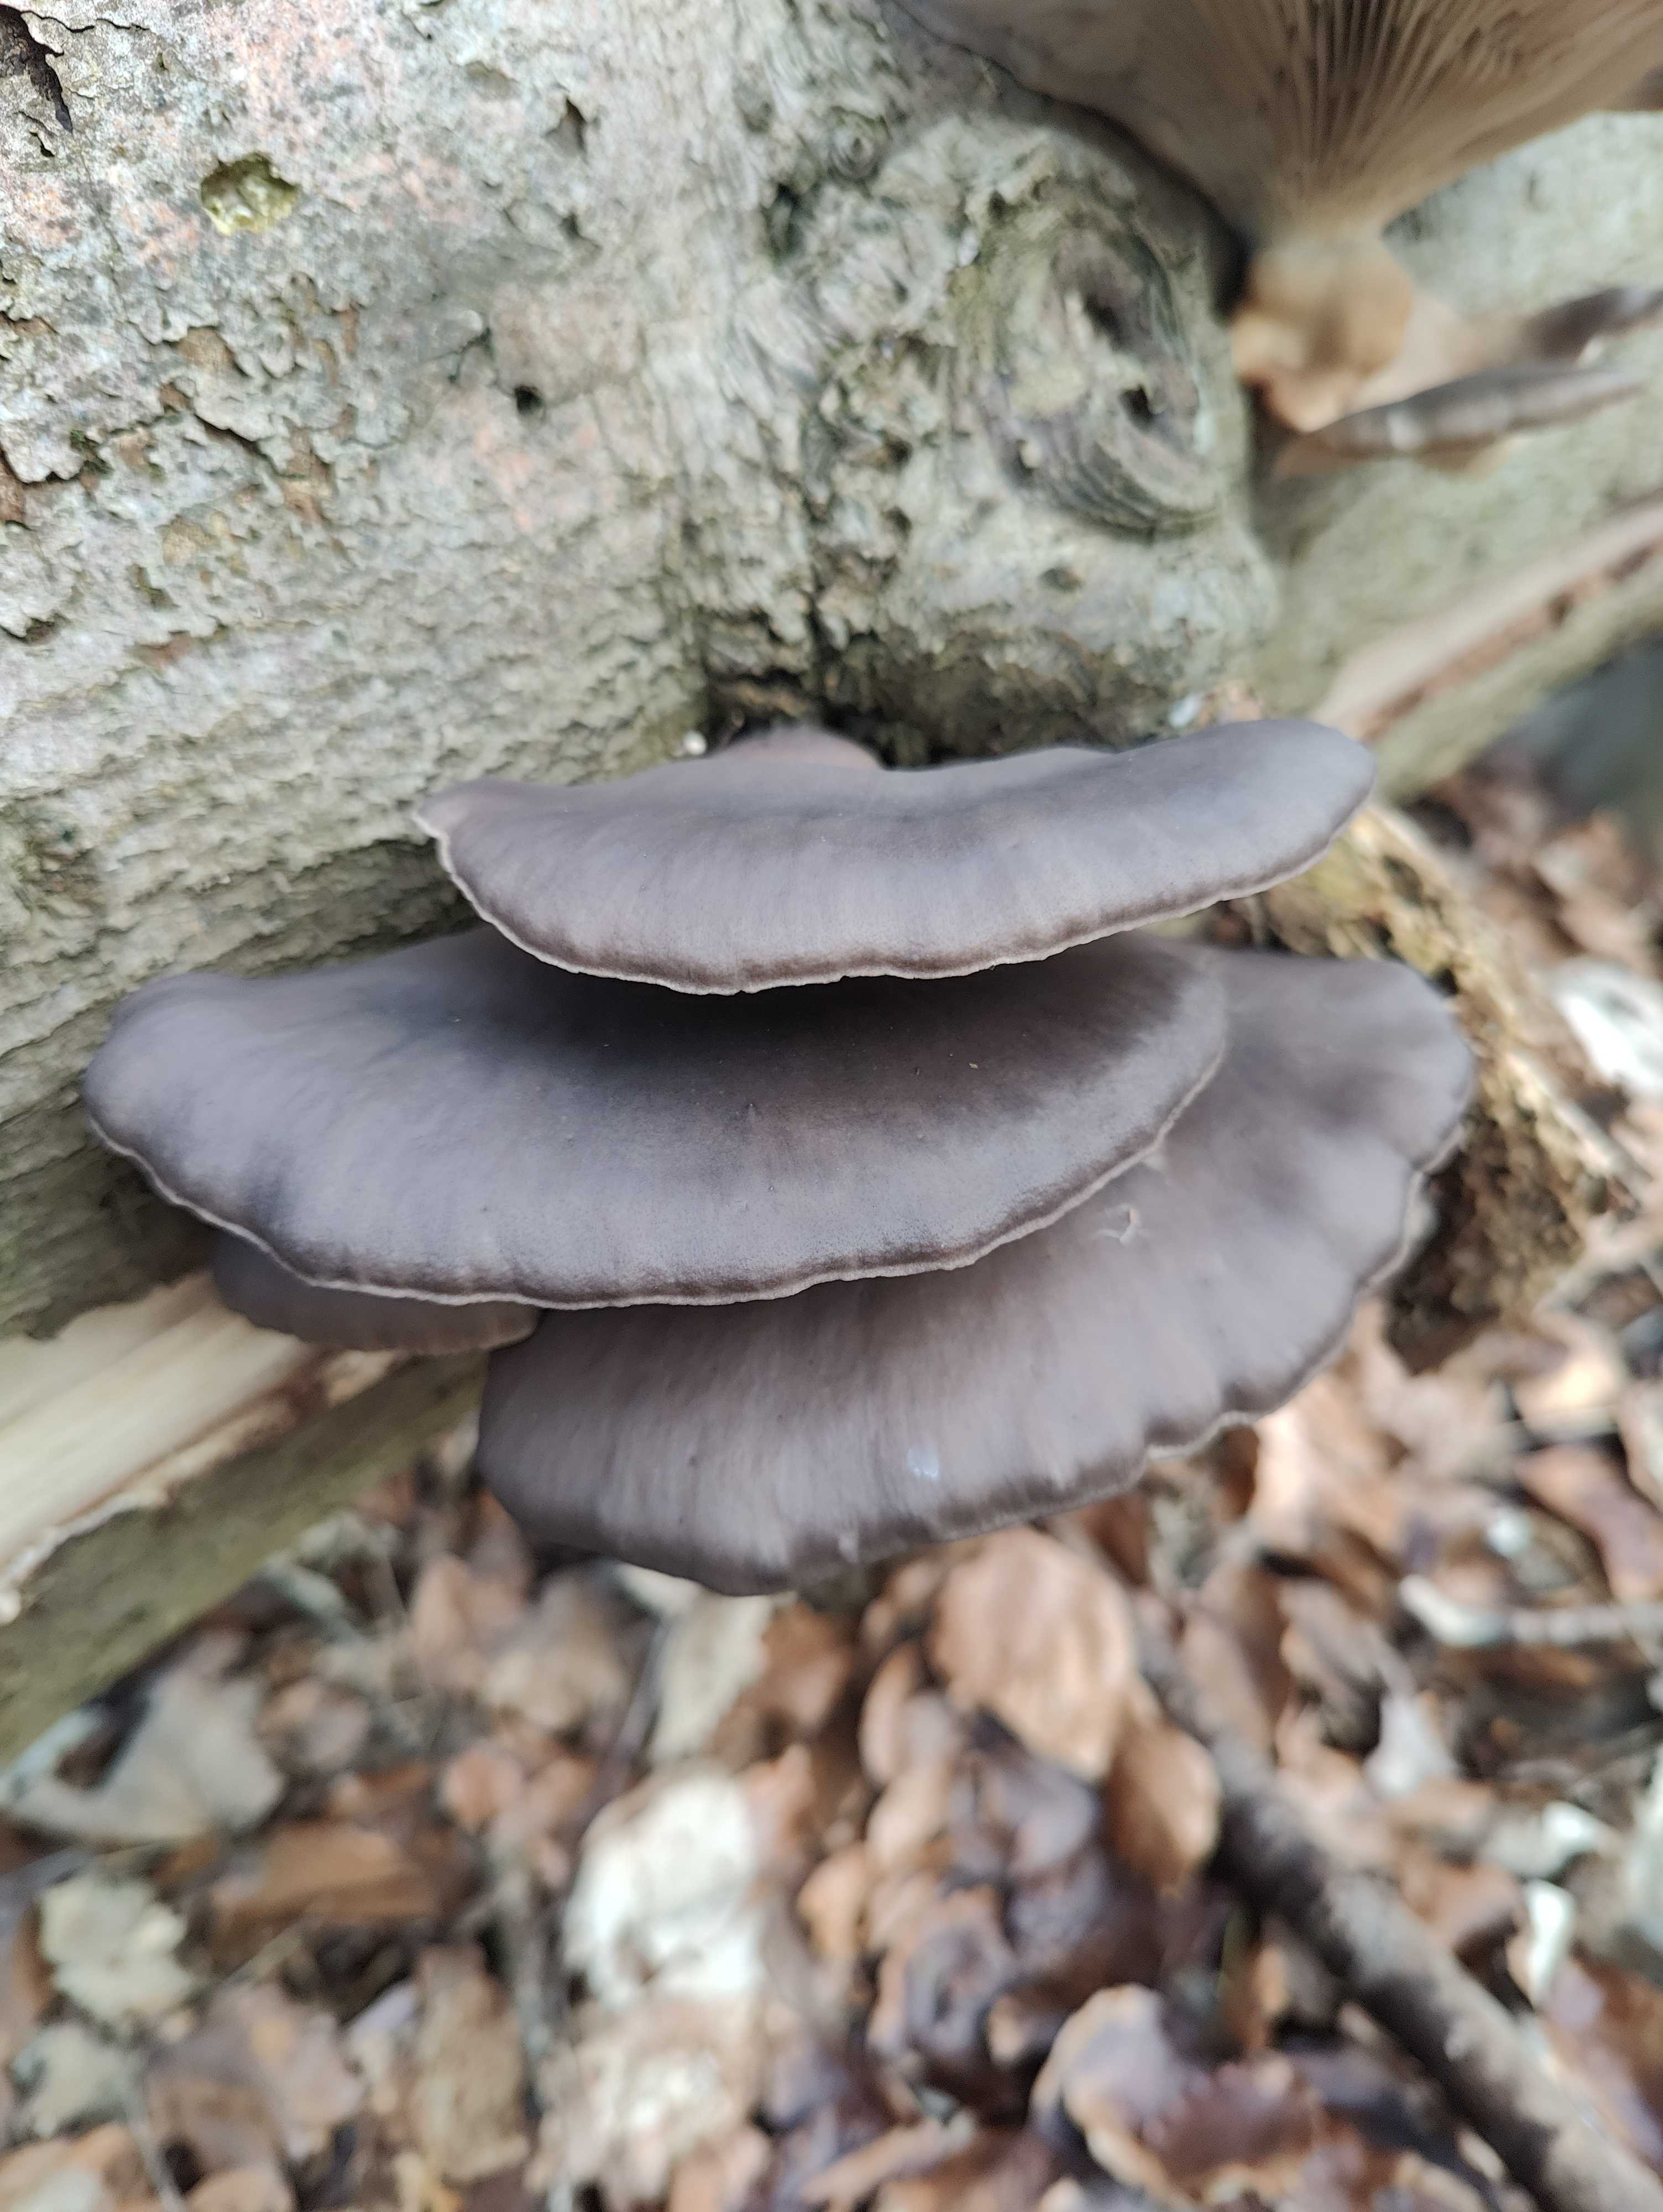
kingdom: Fungi
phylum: Basidiomycota
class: Agaricomycetes
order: Agaricales
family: Pleurotaceae
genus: Pleurotus
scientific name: Pleurotus ostreatus
